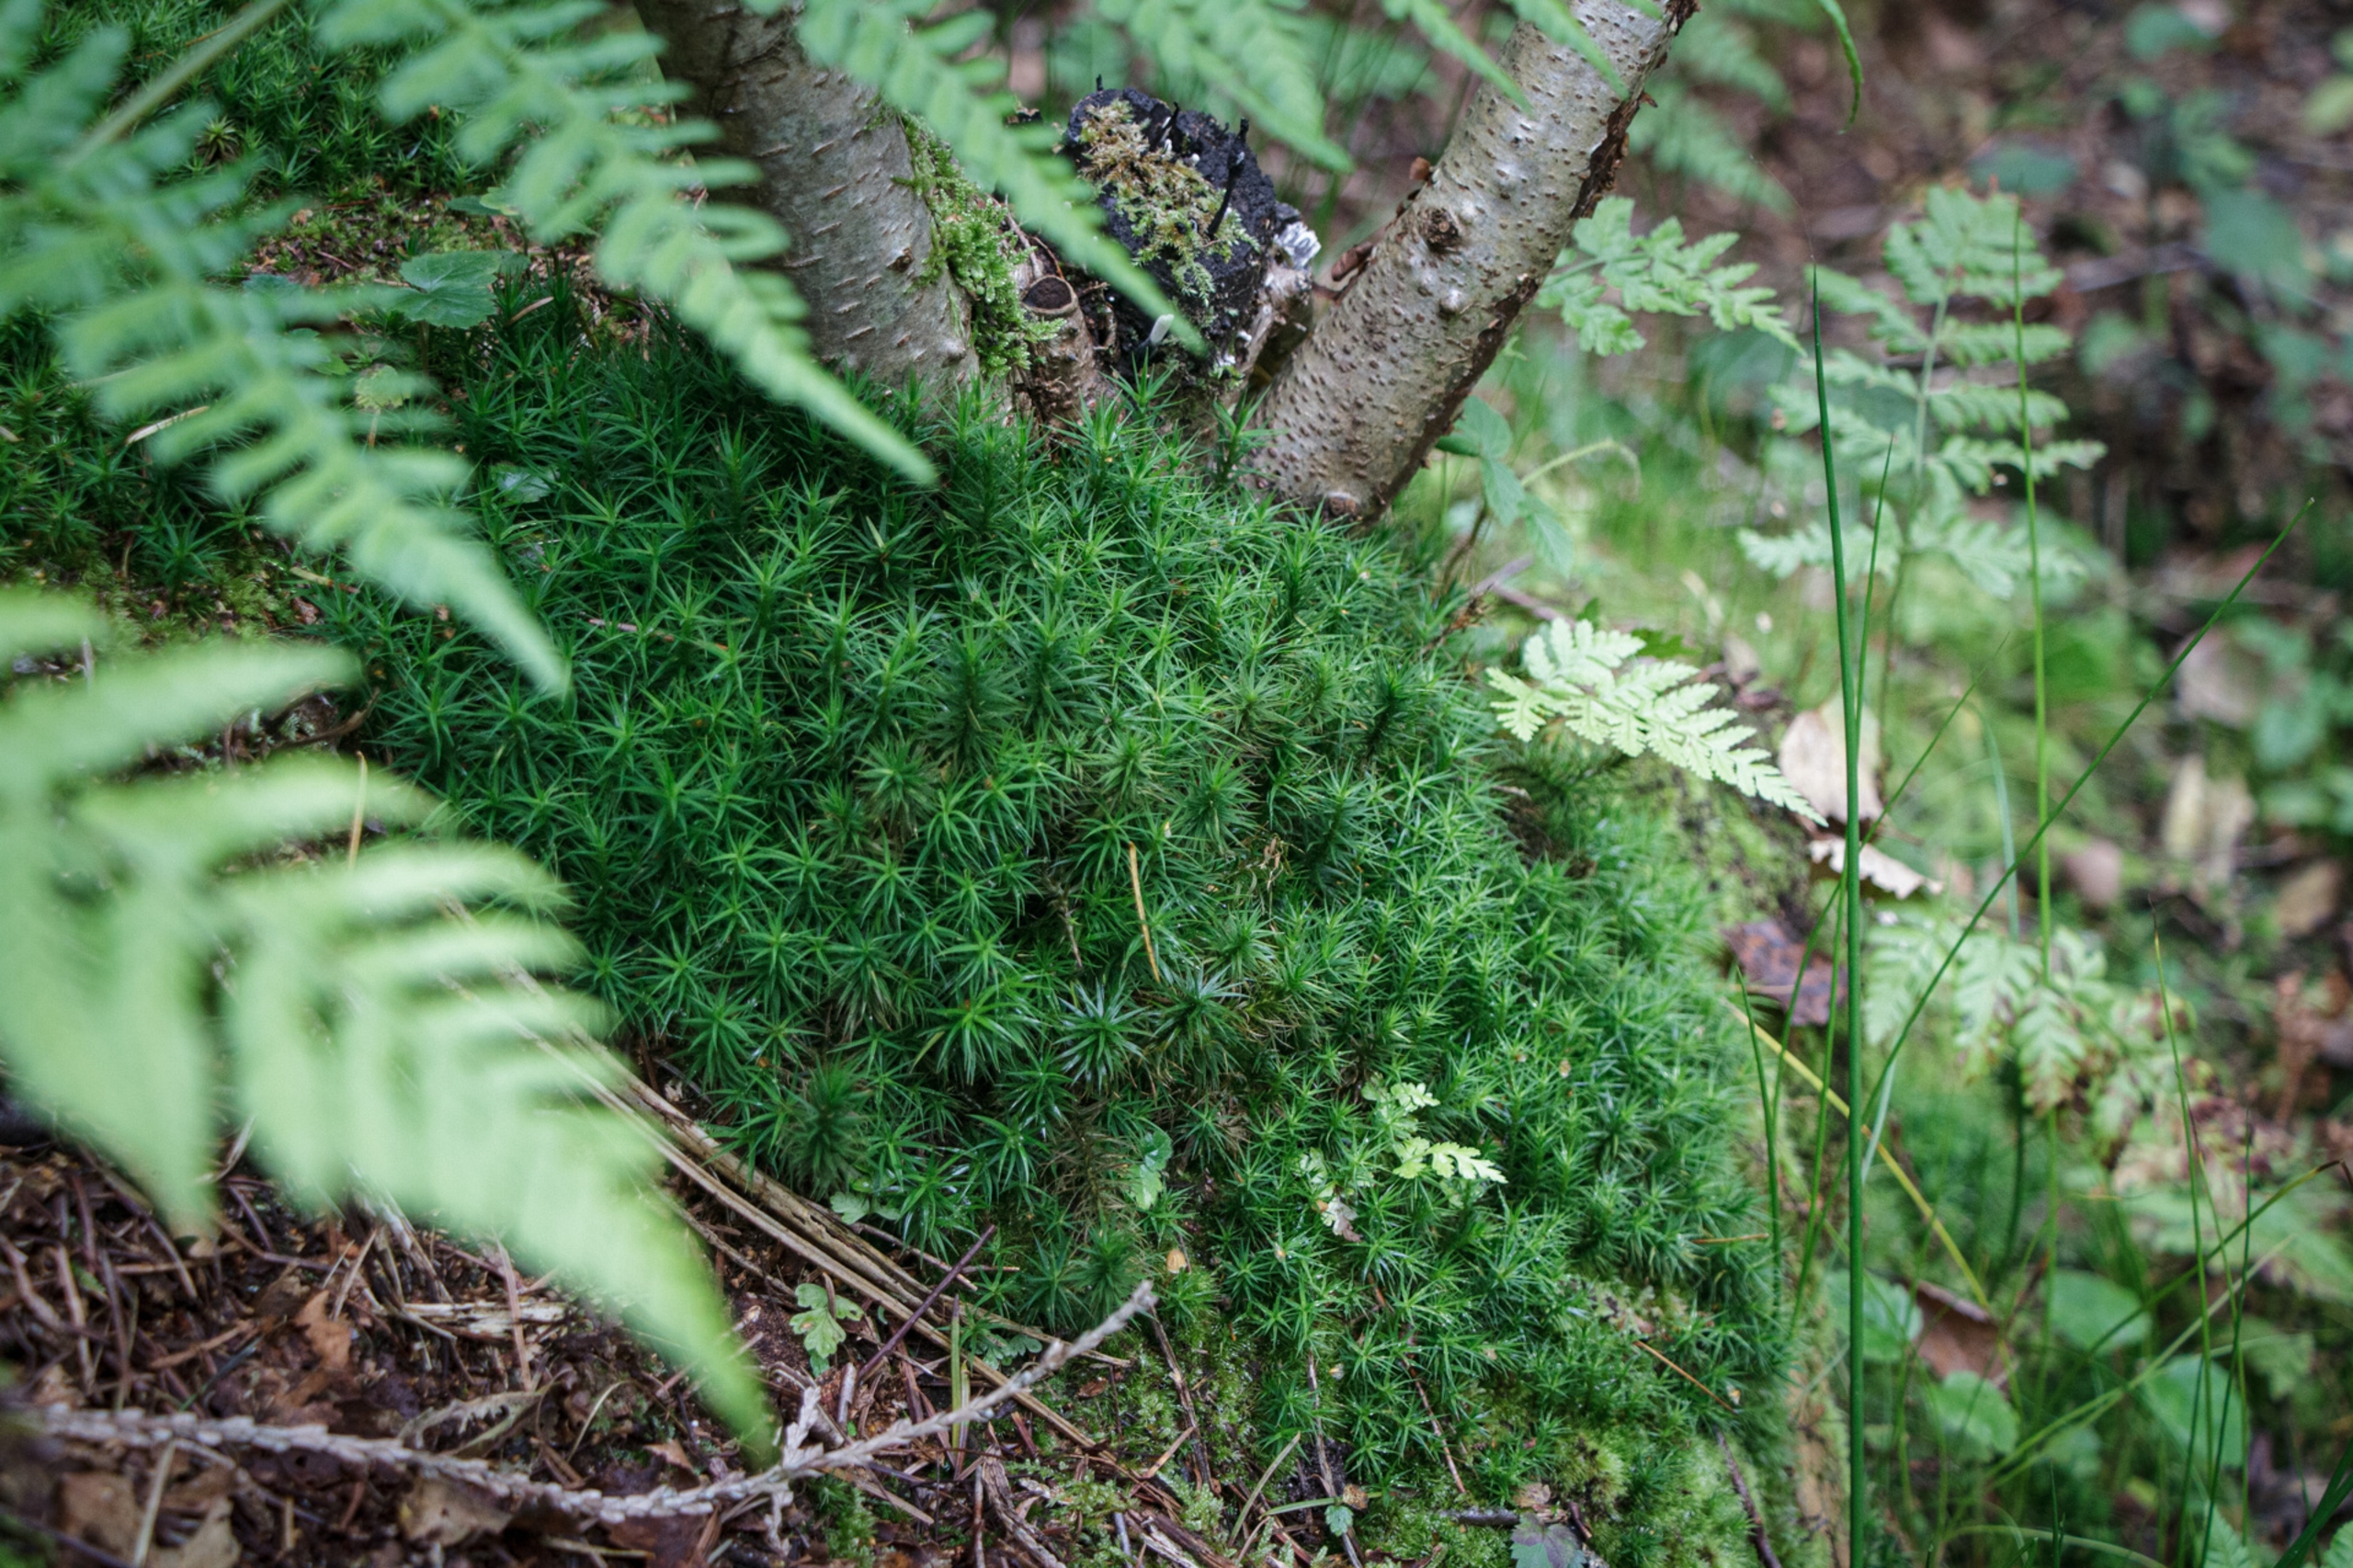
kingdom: Plantae
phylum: Bryophyta
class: Polytrichopsida
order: Polytrichales
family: Polytrichaceae
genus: Polytrichum
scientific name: Polytrichum
